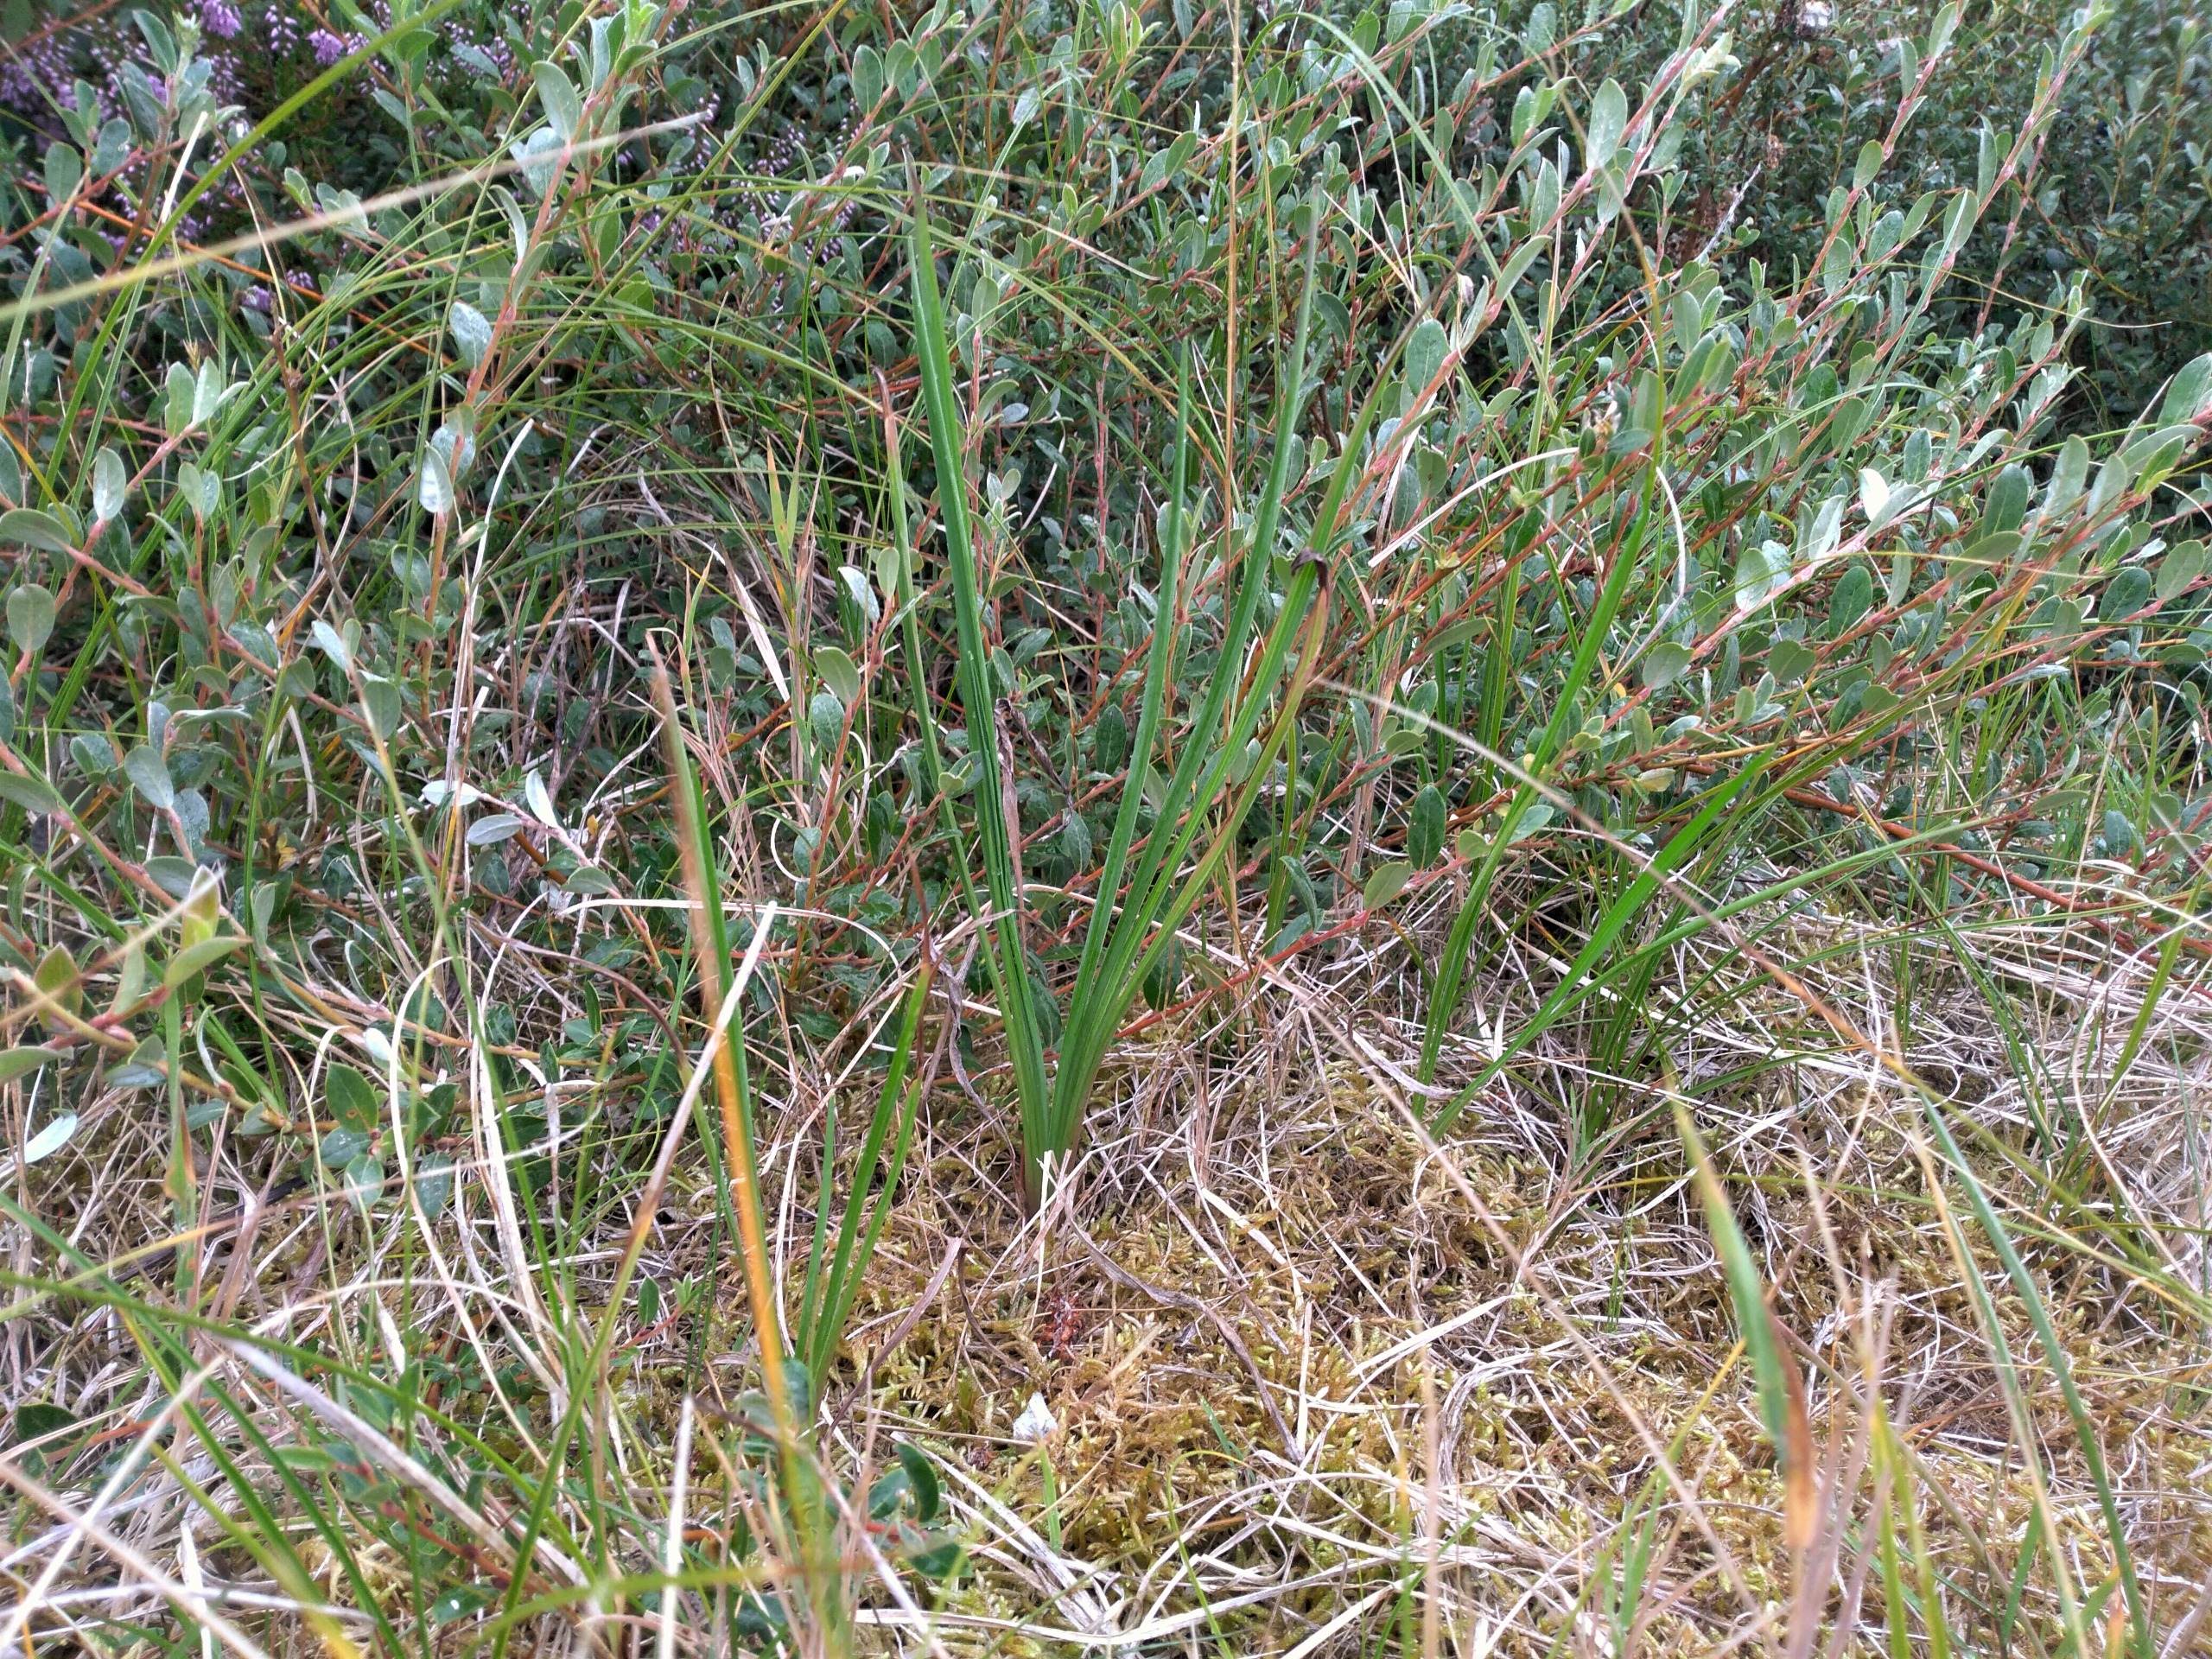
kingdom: Plantae
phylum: Tracheophyta
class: Magnoliopsida
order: Asterales
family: Asteraceae
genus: Scorzonera
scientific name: Scorzonera humilis
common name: Lav skorsoner
